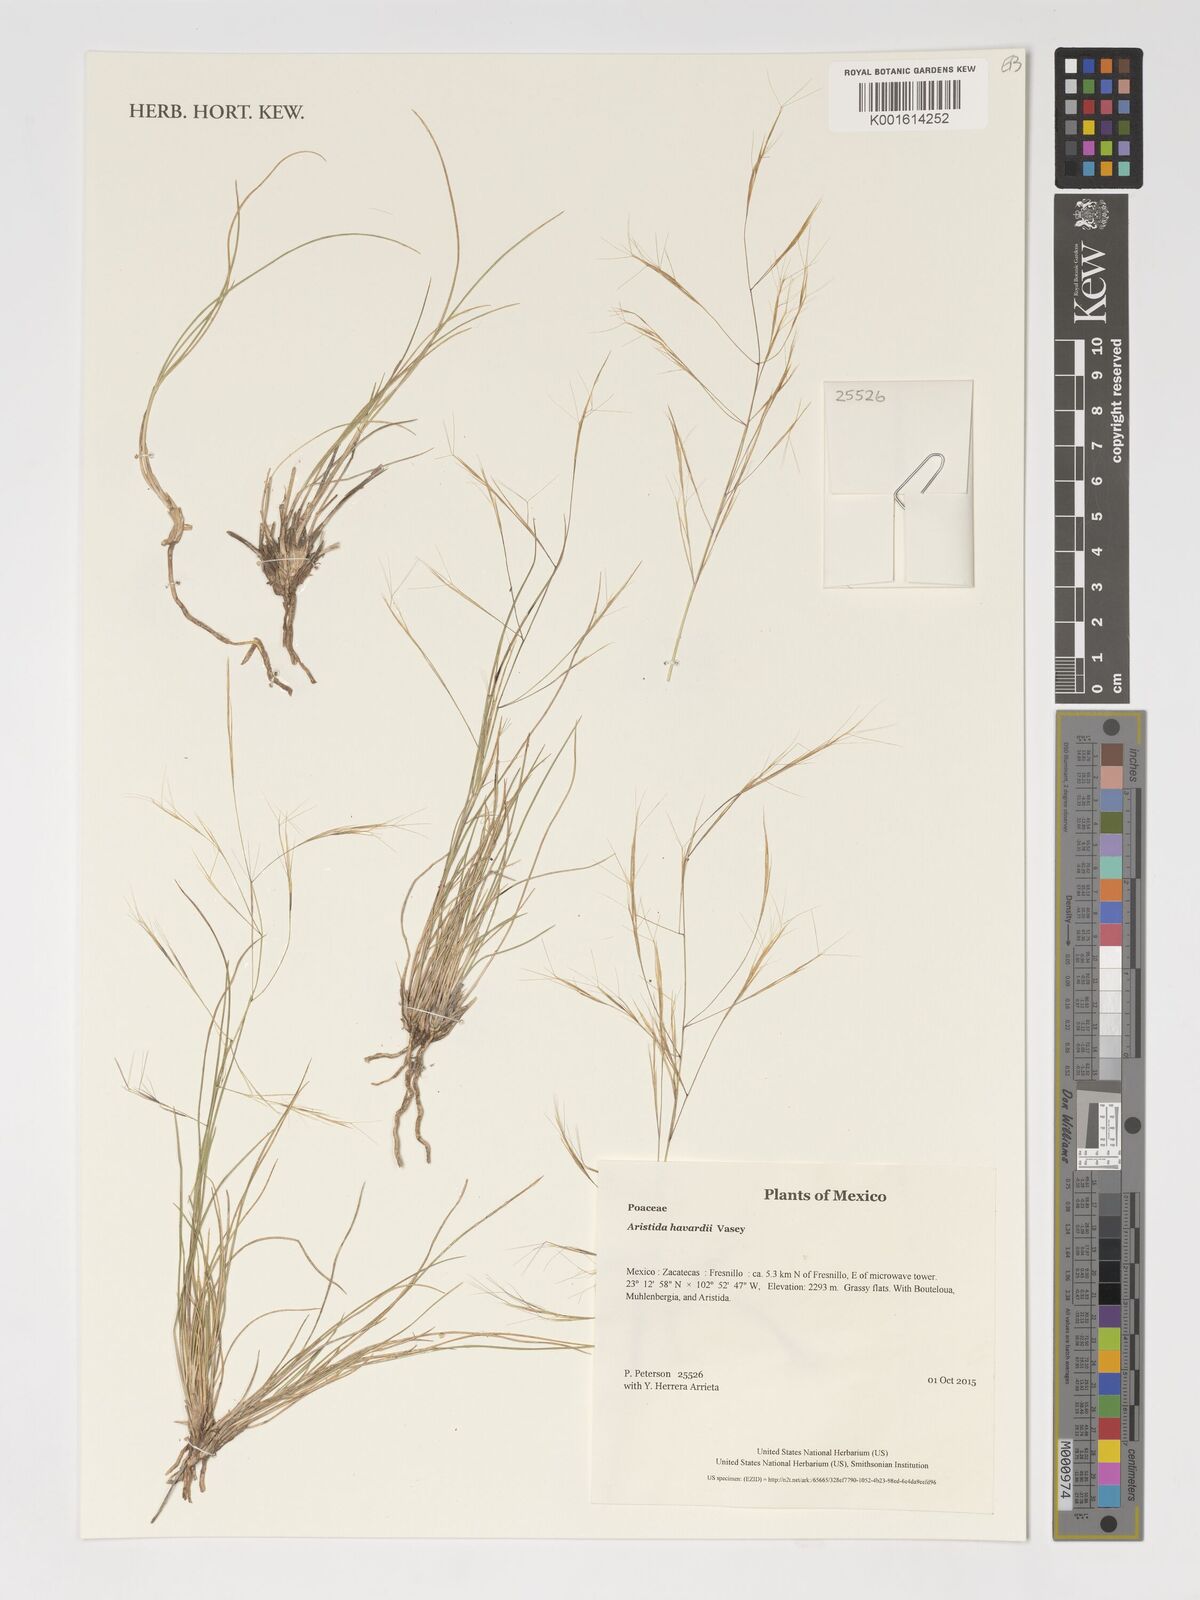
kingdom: Plantae
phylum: Tracheophyta
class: Liliopsida
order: Poales
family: Poaceae
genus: Aristida
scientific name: Aristida havardii
